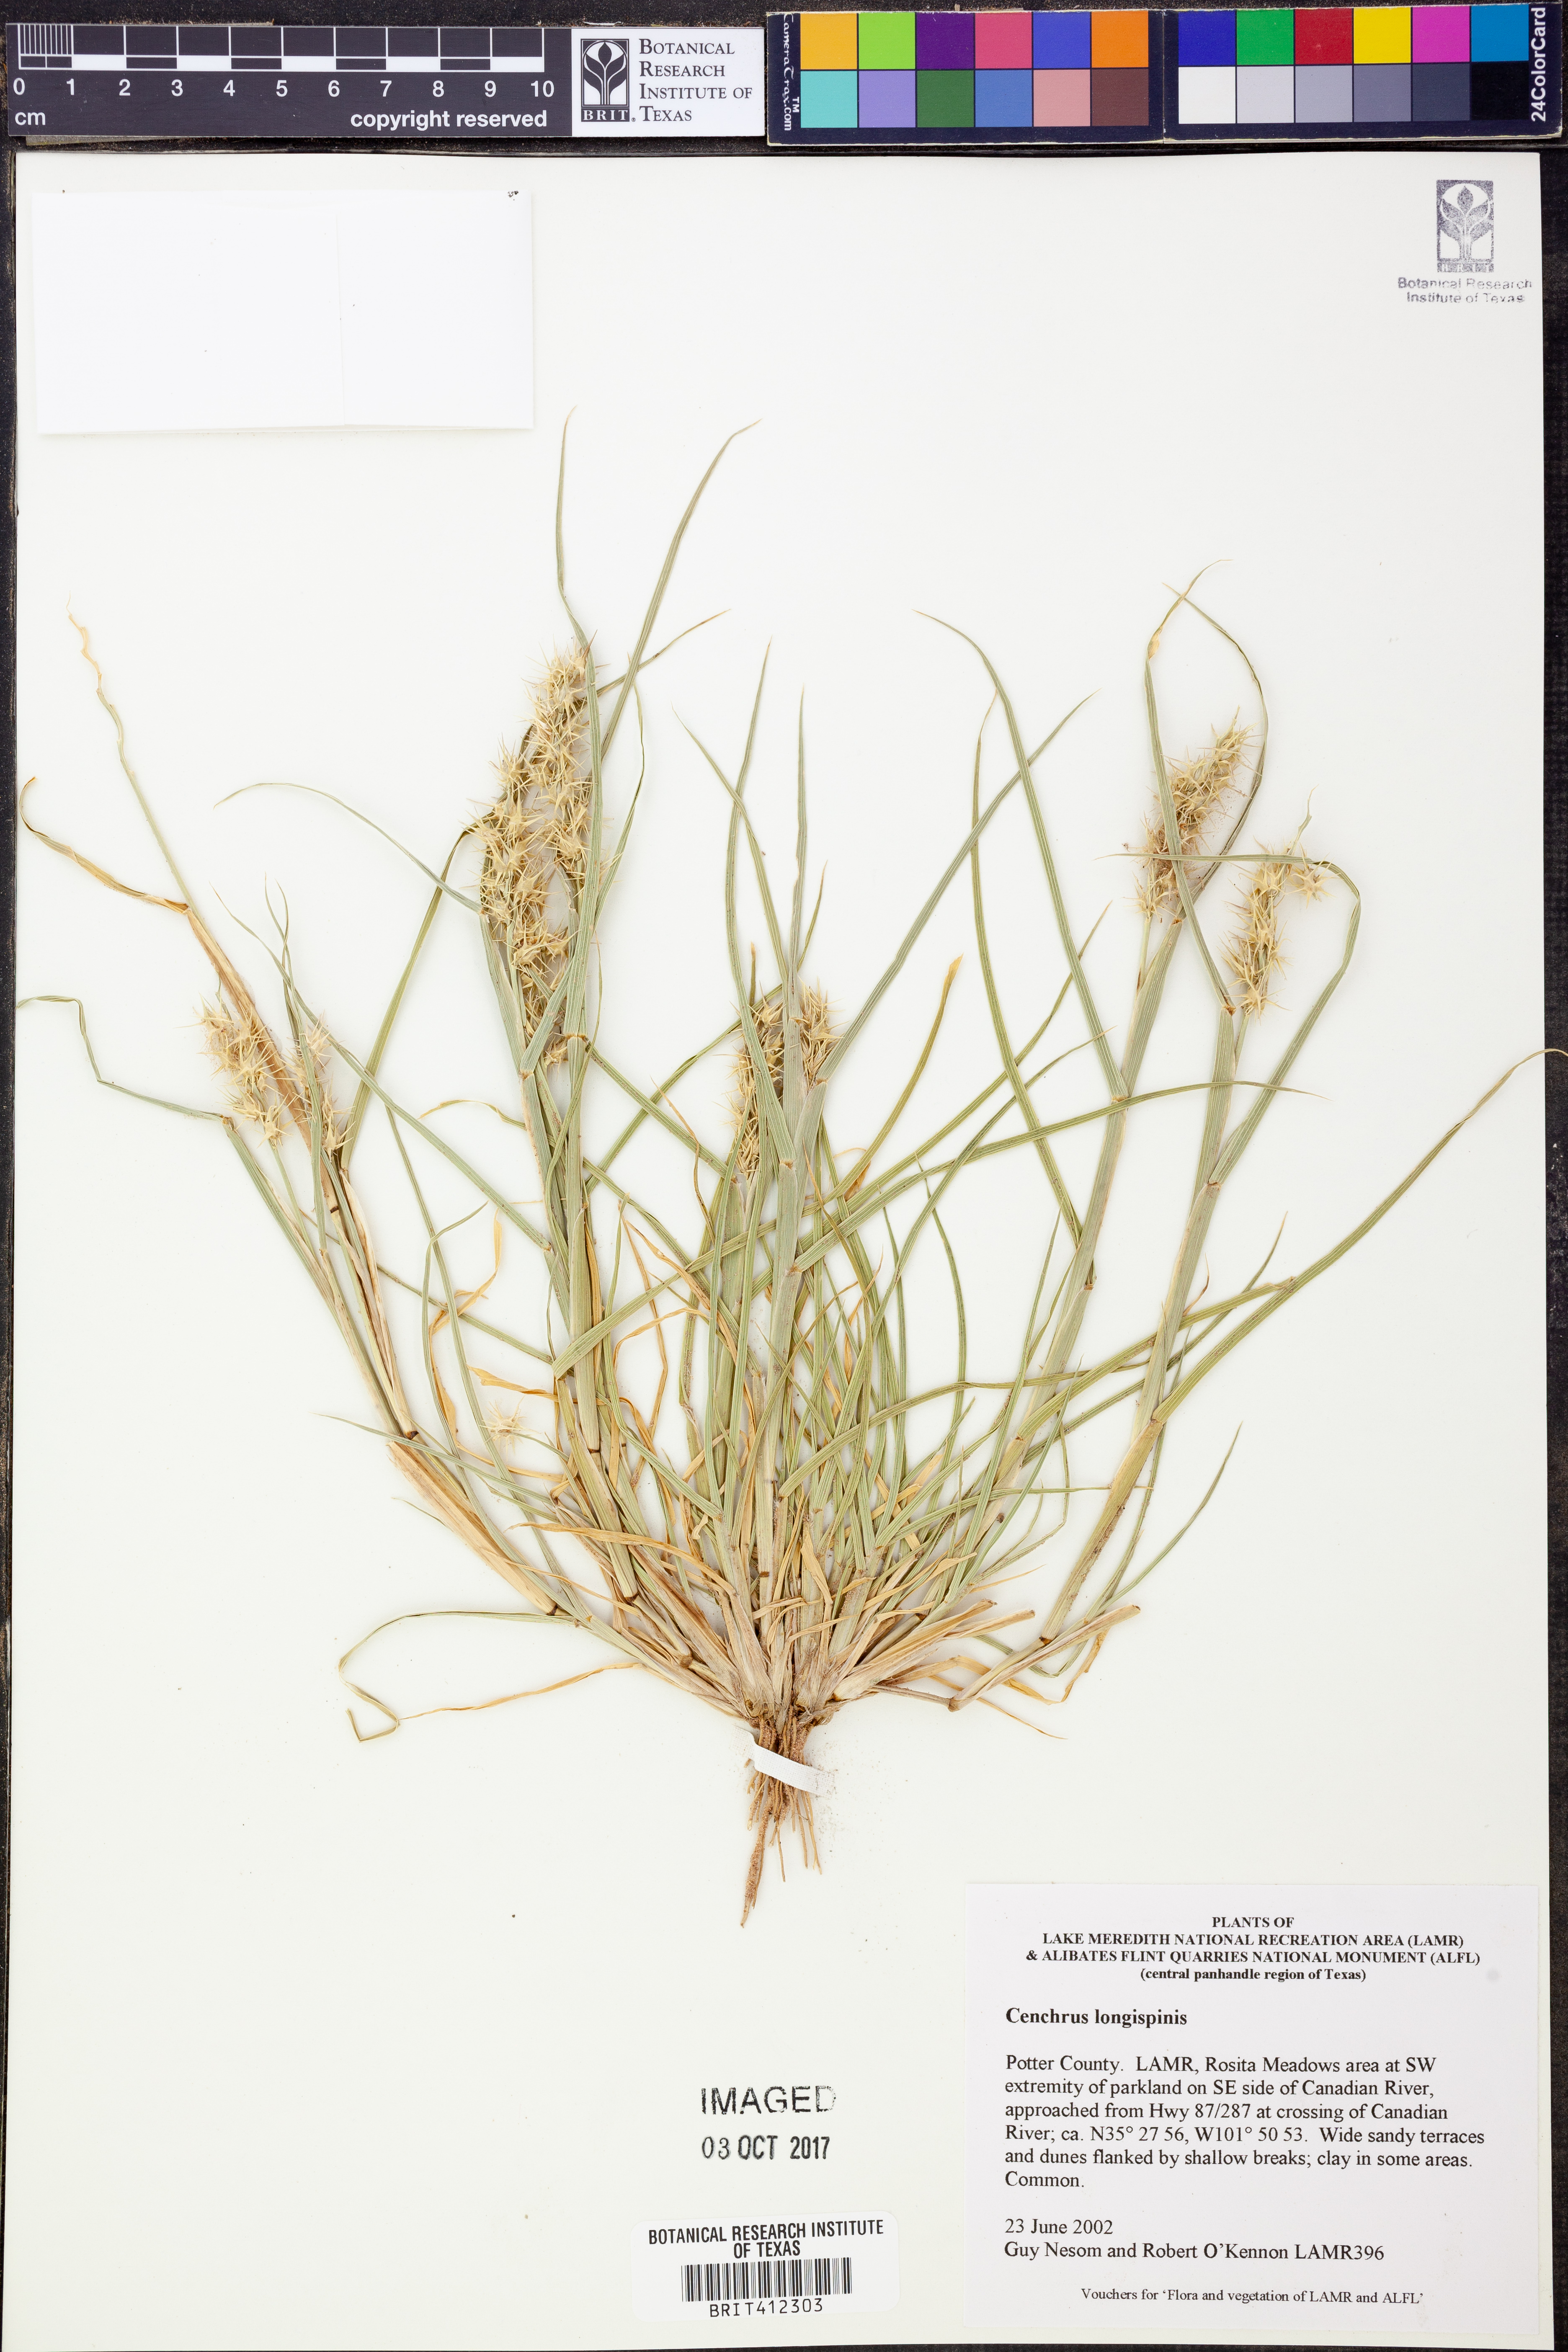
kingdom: Plantae
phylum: Tracheophyta
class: Liliopsida
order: Poales
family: Poaceae
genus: Cenchrus
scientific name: Cenchrus longispinus
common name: Mat sandbur
